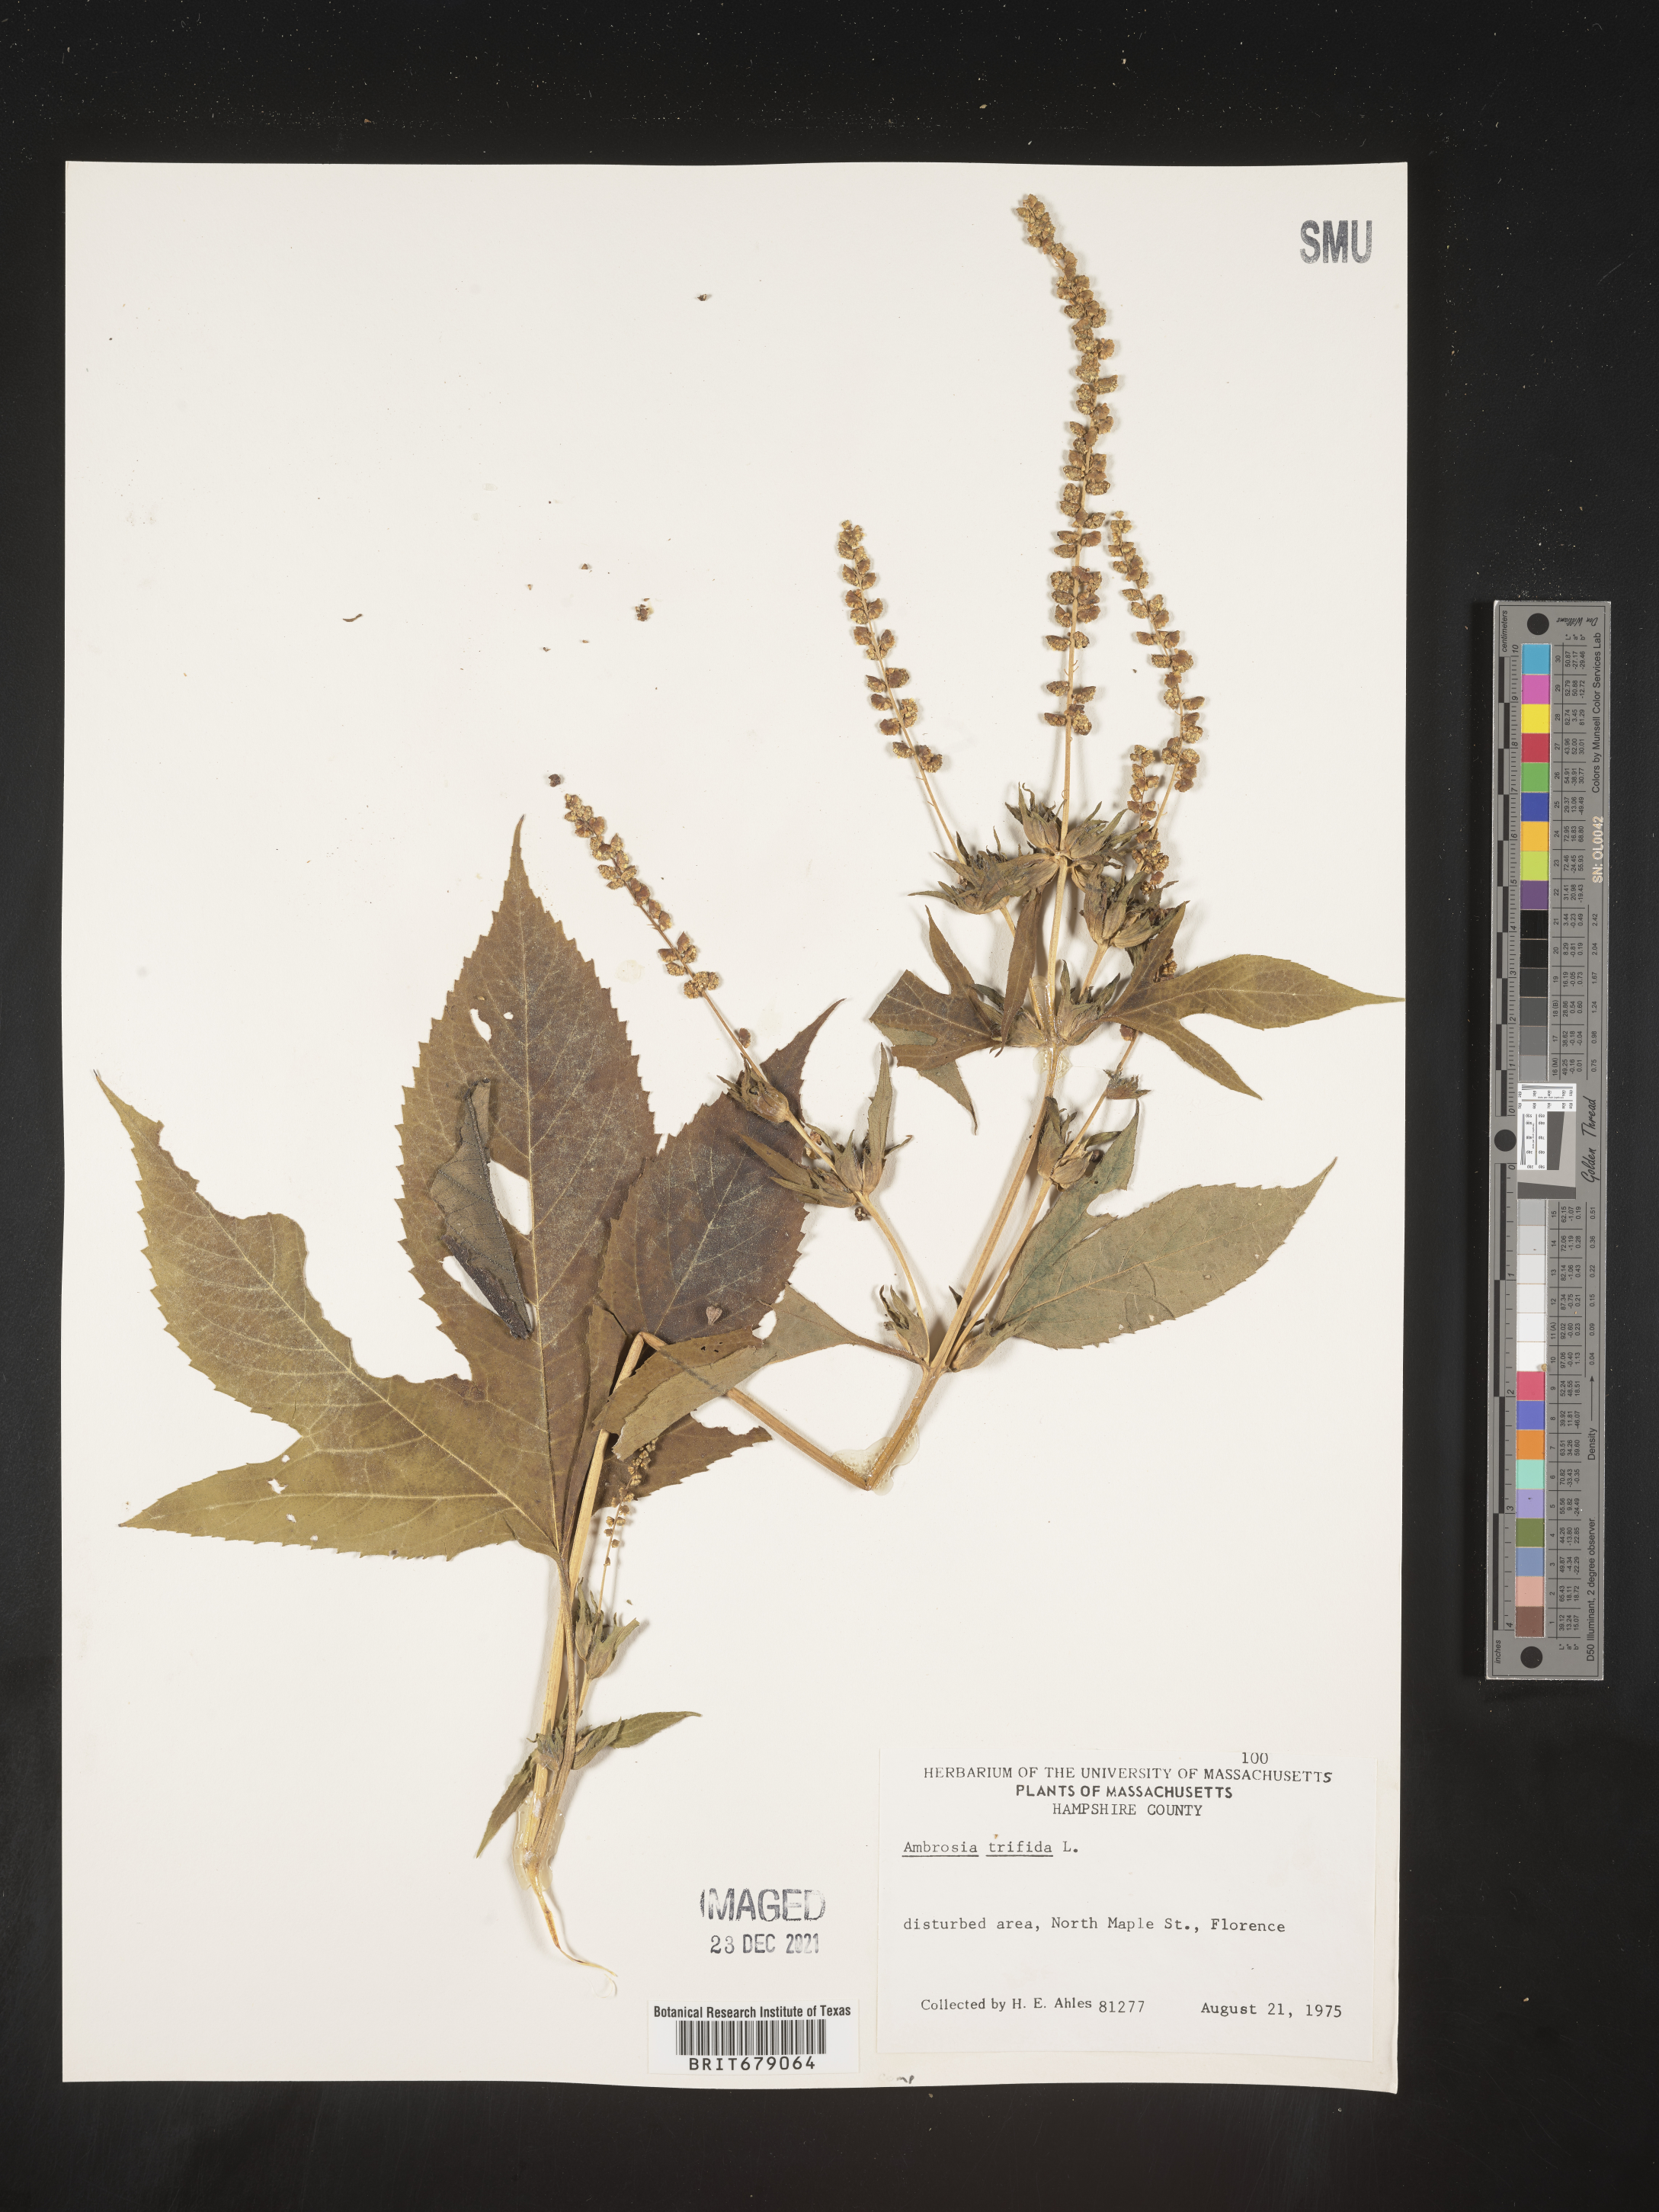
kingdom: Plantae
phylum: Tracheophyta
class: Magnoliopsida
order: Asterales
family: Asteraceae
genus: Ambrosia
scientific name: Ambrosia trifida
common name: Giant ragweed
